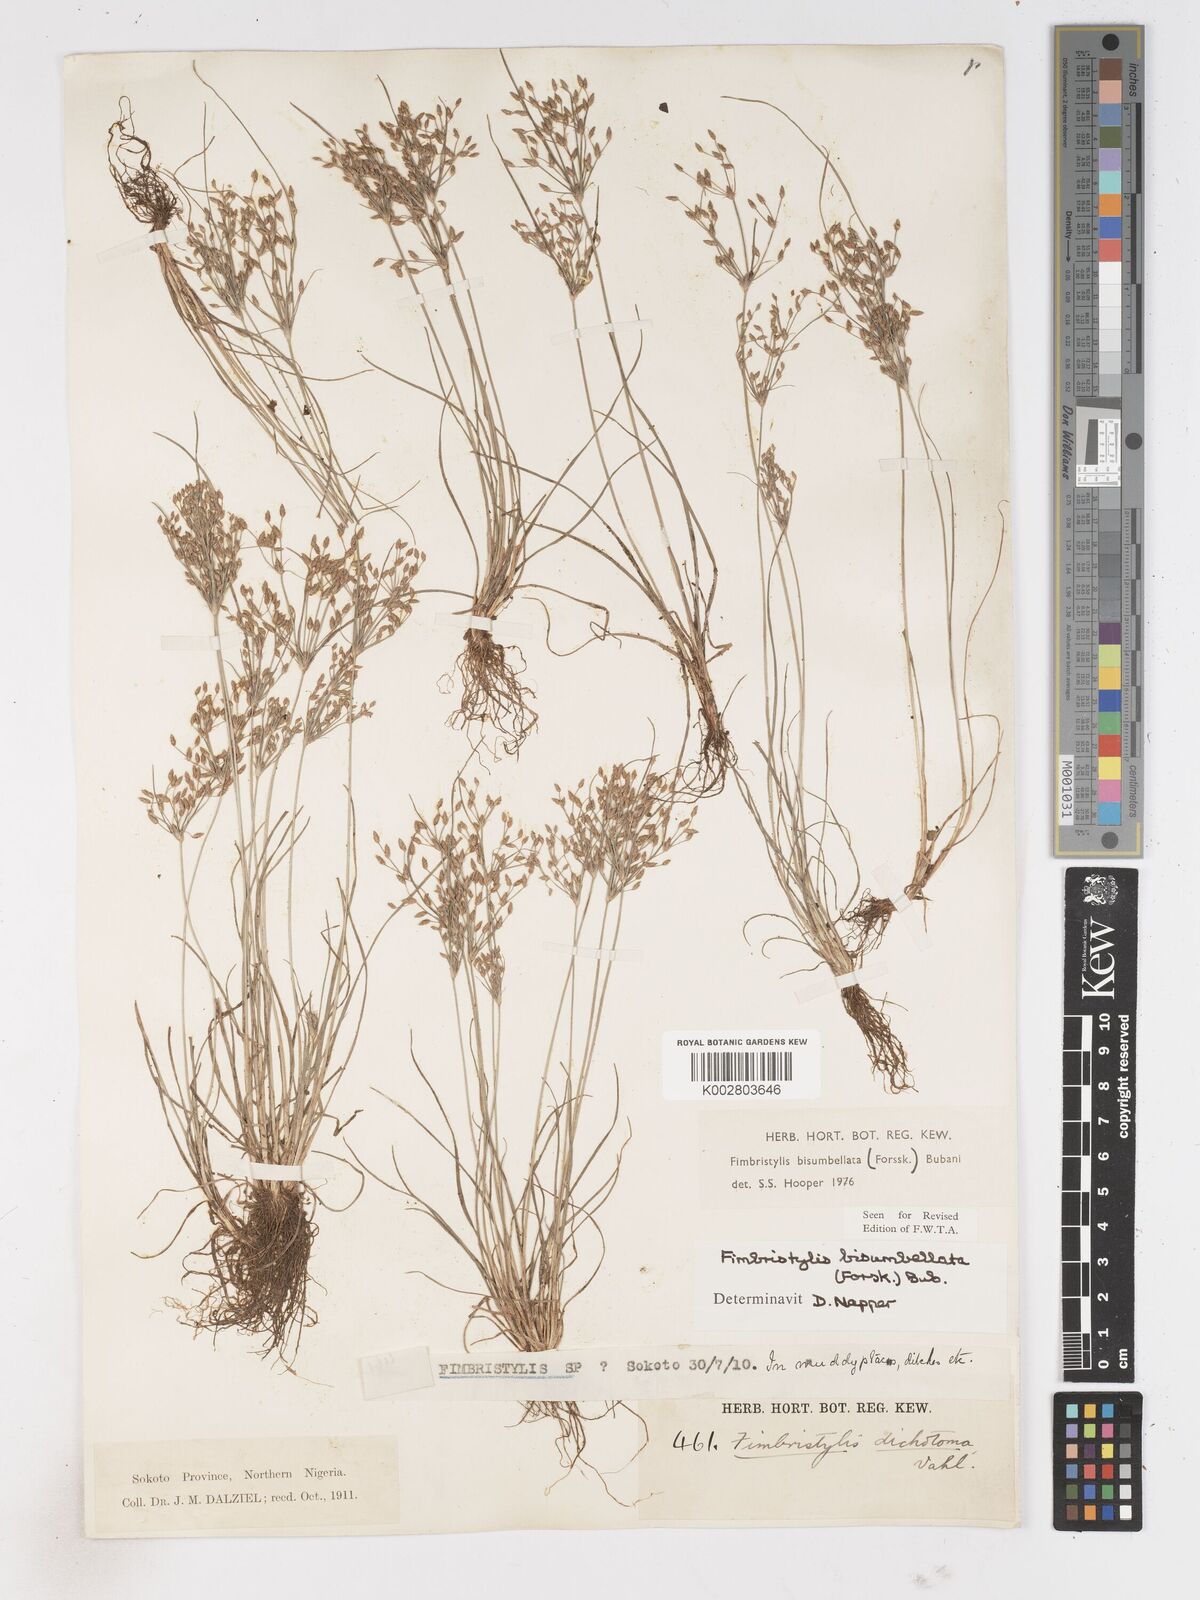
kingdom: Plantae
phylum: Tracheophyta
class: Liliopsida
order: Poales
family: Cyperaceae
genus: Fimbristylis
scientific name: Fimbristylis bisumbellata
